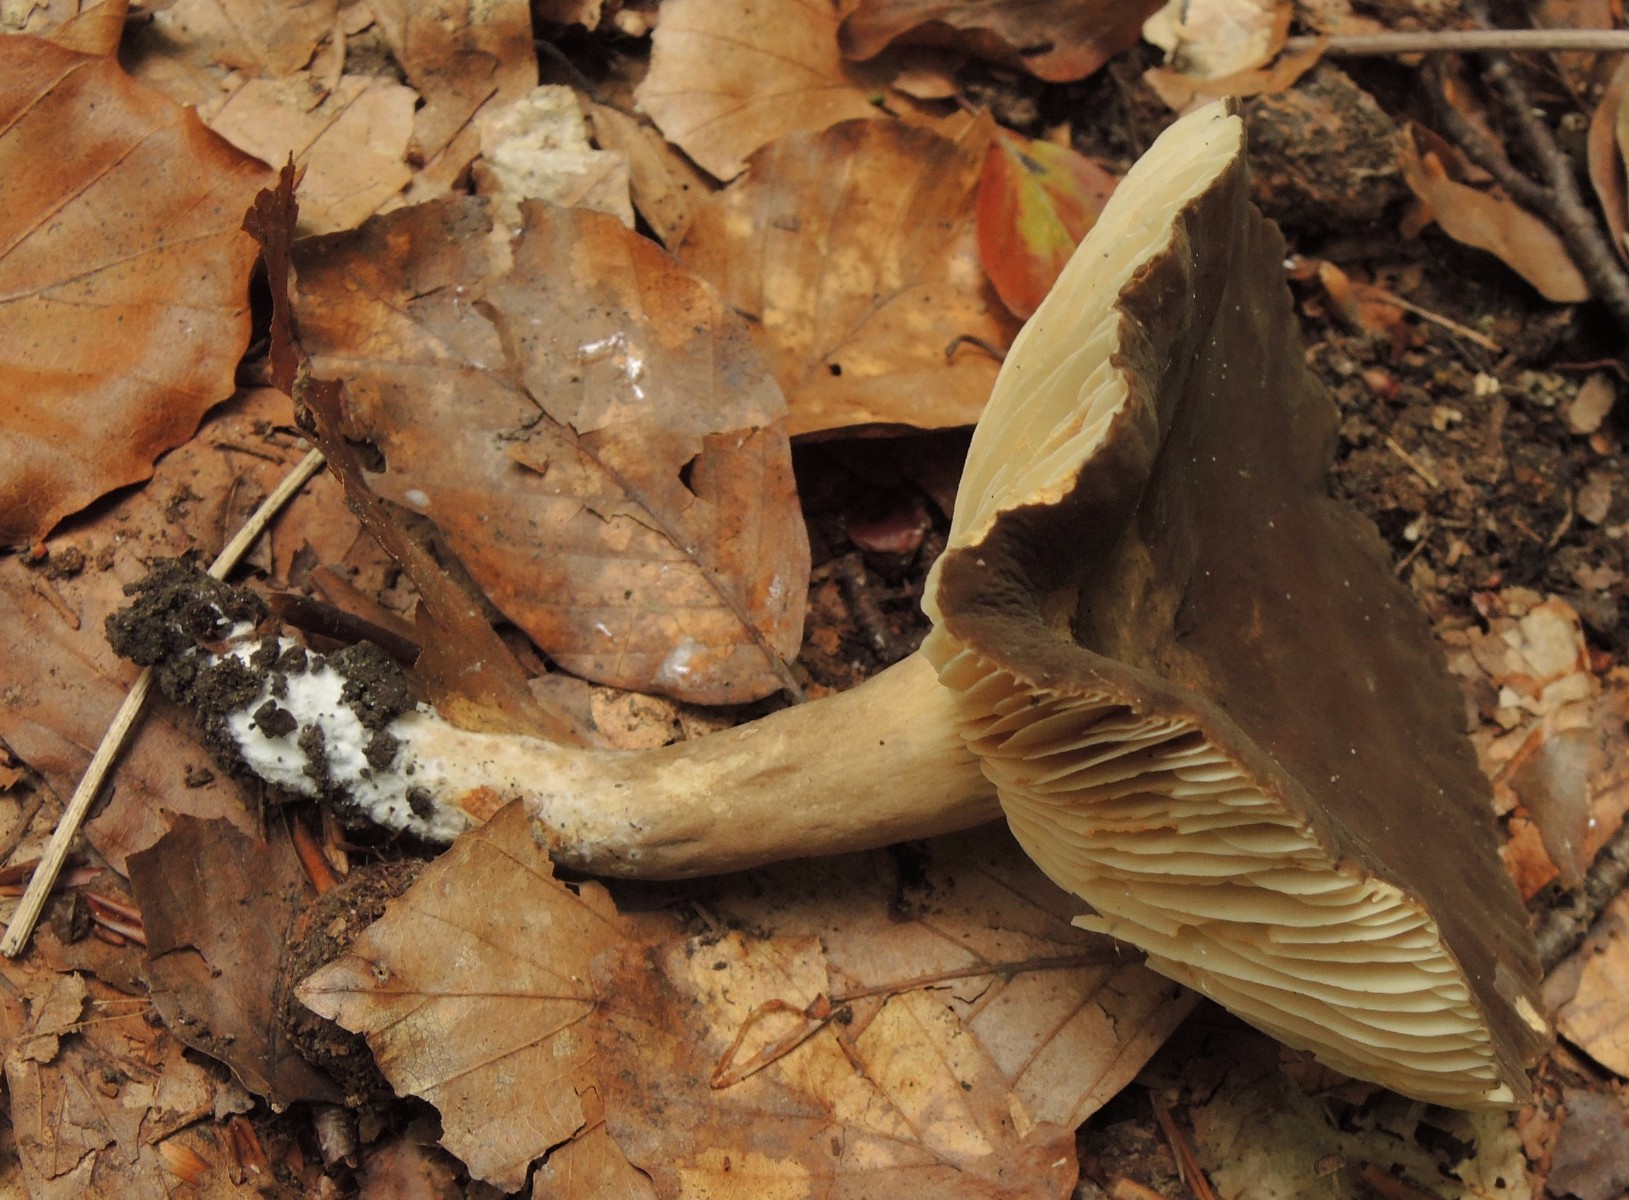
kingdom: Fungi
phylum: Basidiomycota
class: Agaricomycetes
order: Russulales
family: Russulaceae
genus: Lactarius
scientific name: Lactarius romagnesii
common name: fjernbladet mælkehat
